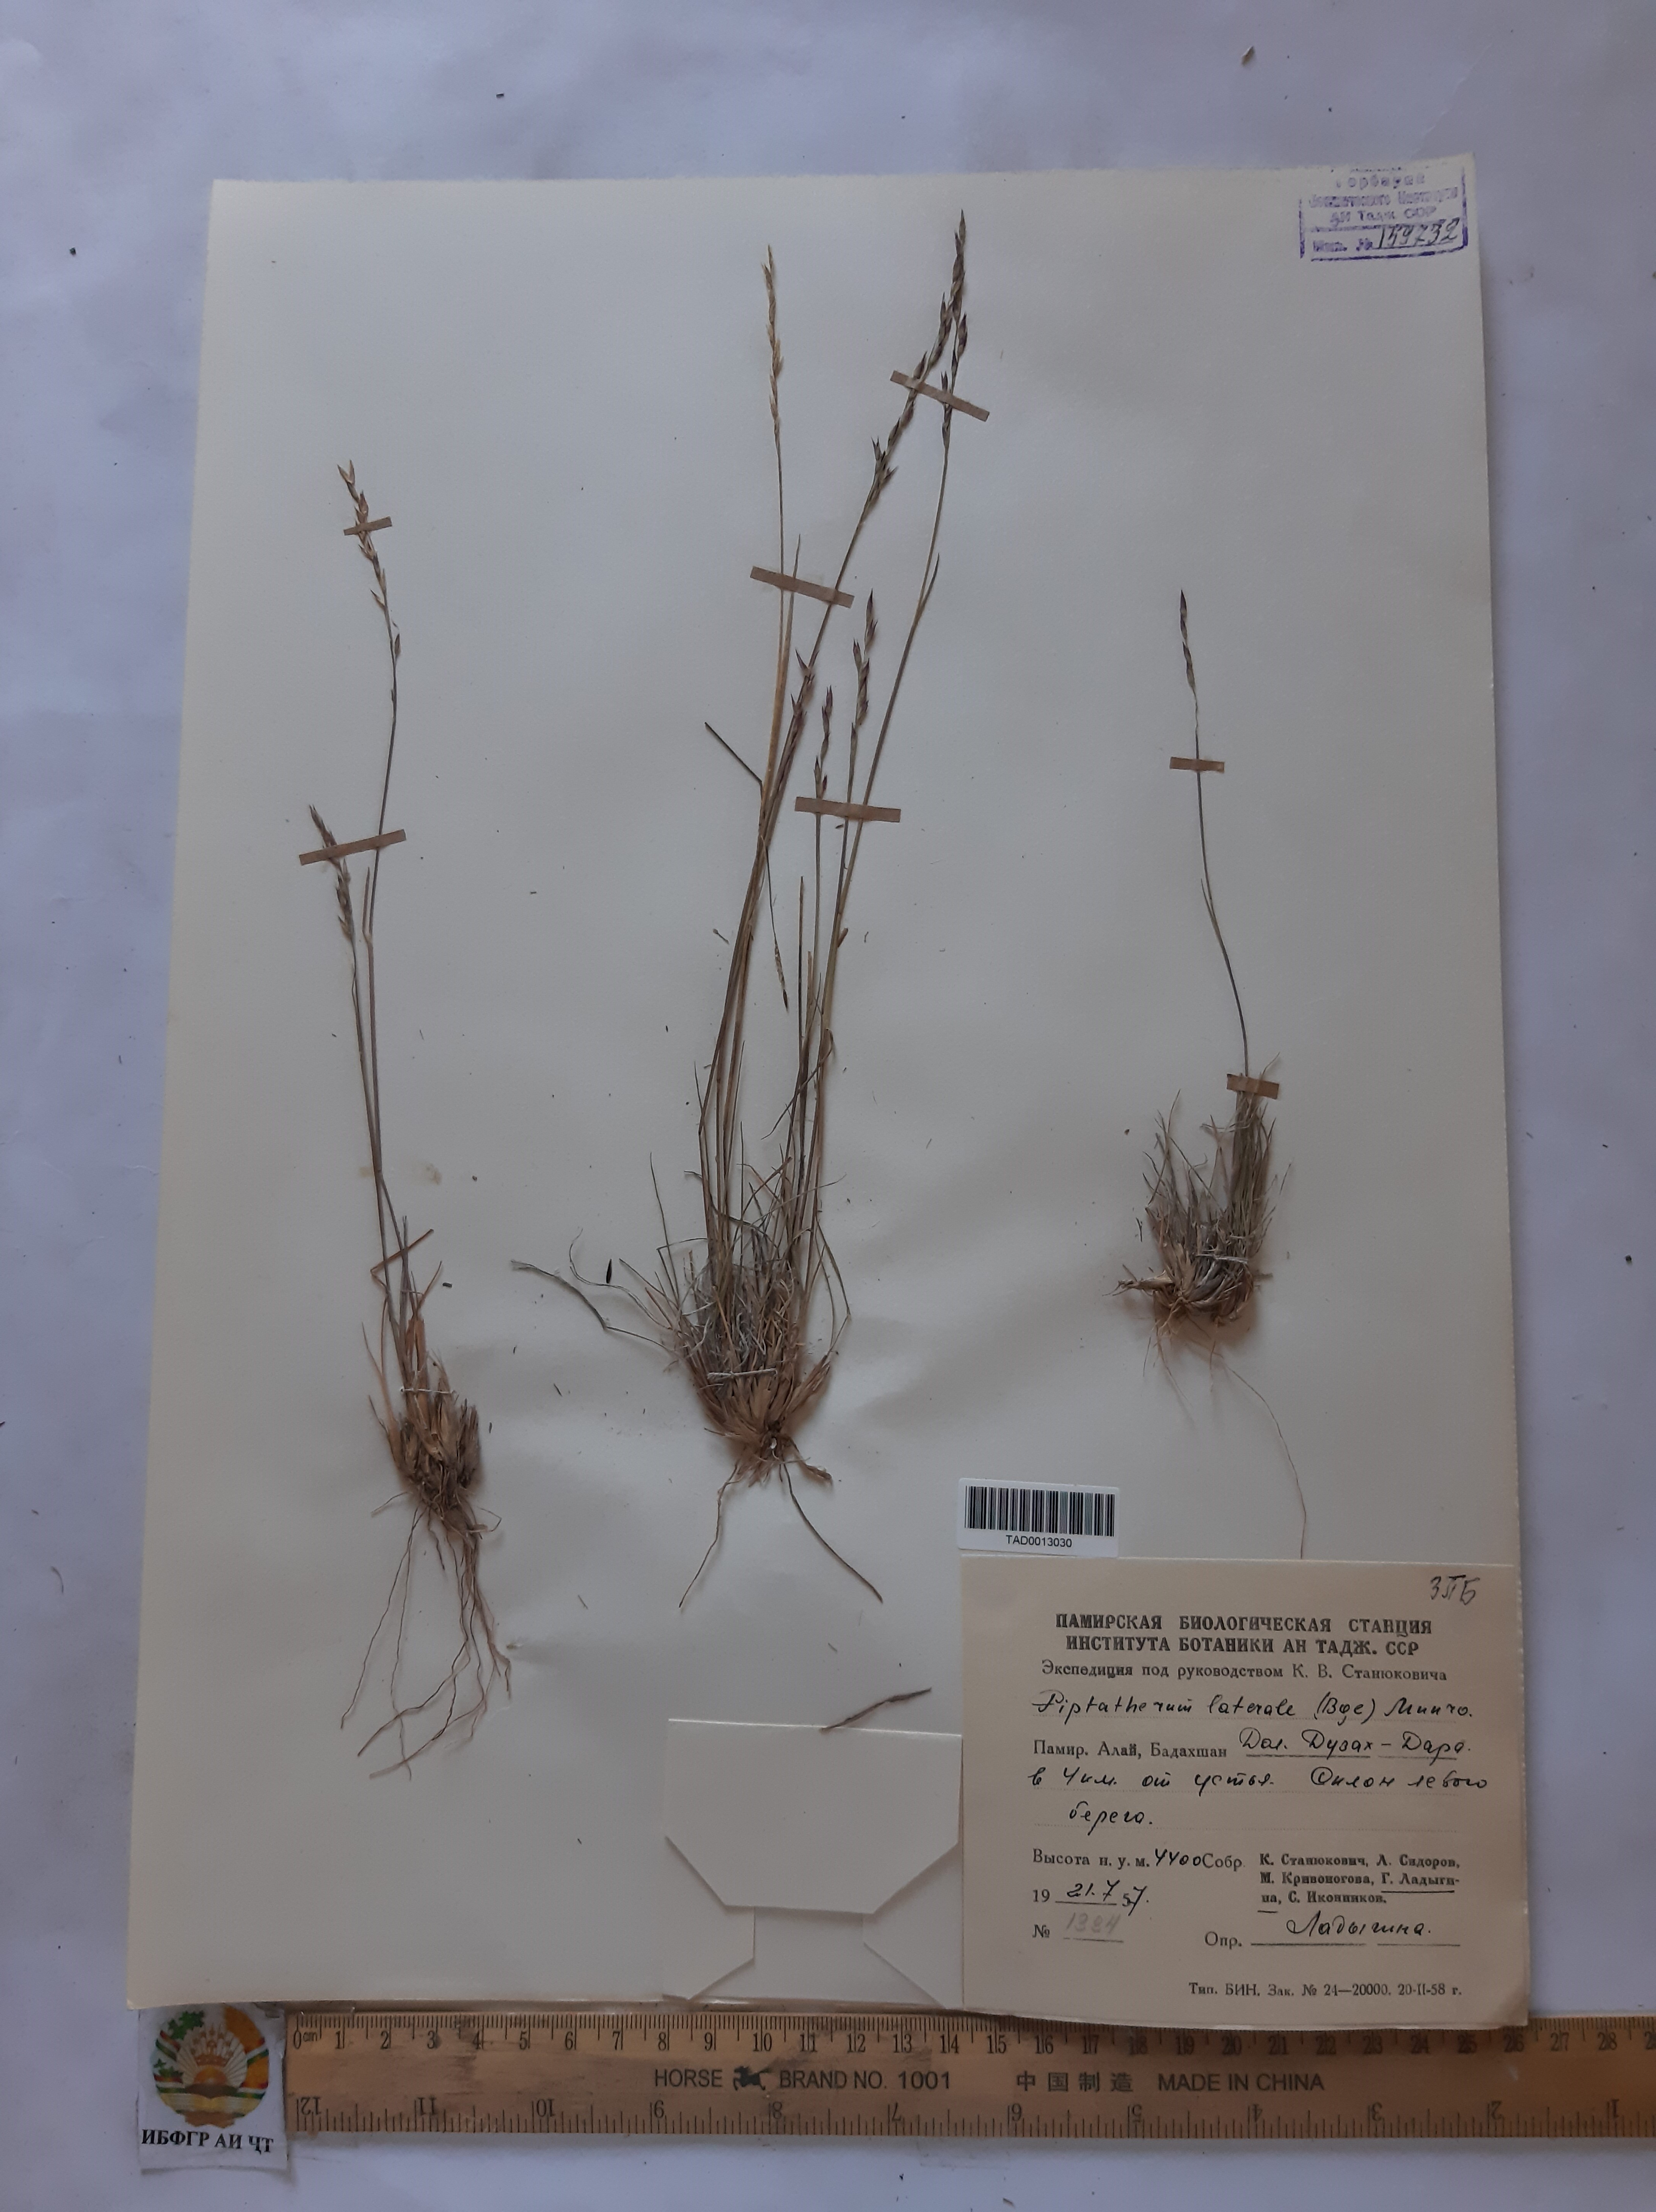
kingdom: Plantae
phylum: Tracheophyta
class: Liliopsida
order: Poales
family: Poaceae
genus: Piptatherum
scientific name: Piptatherum laterale
